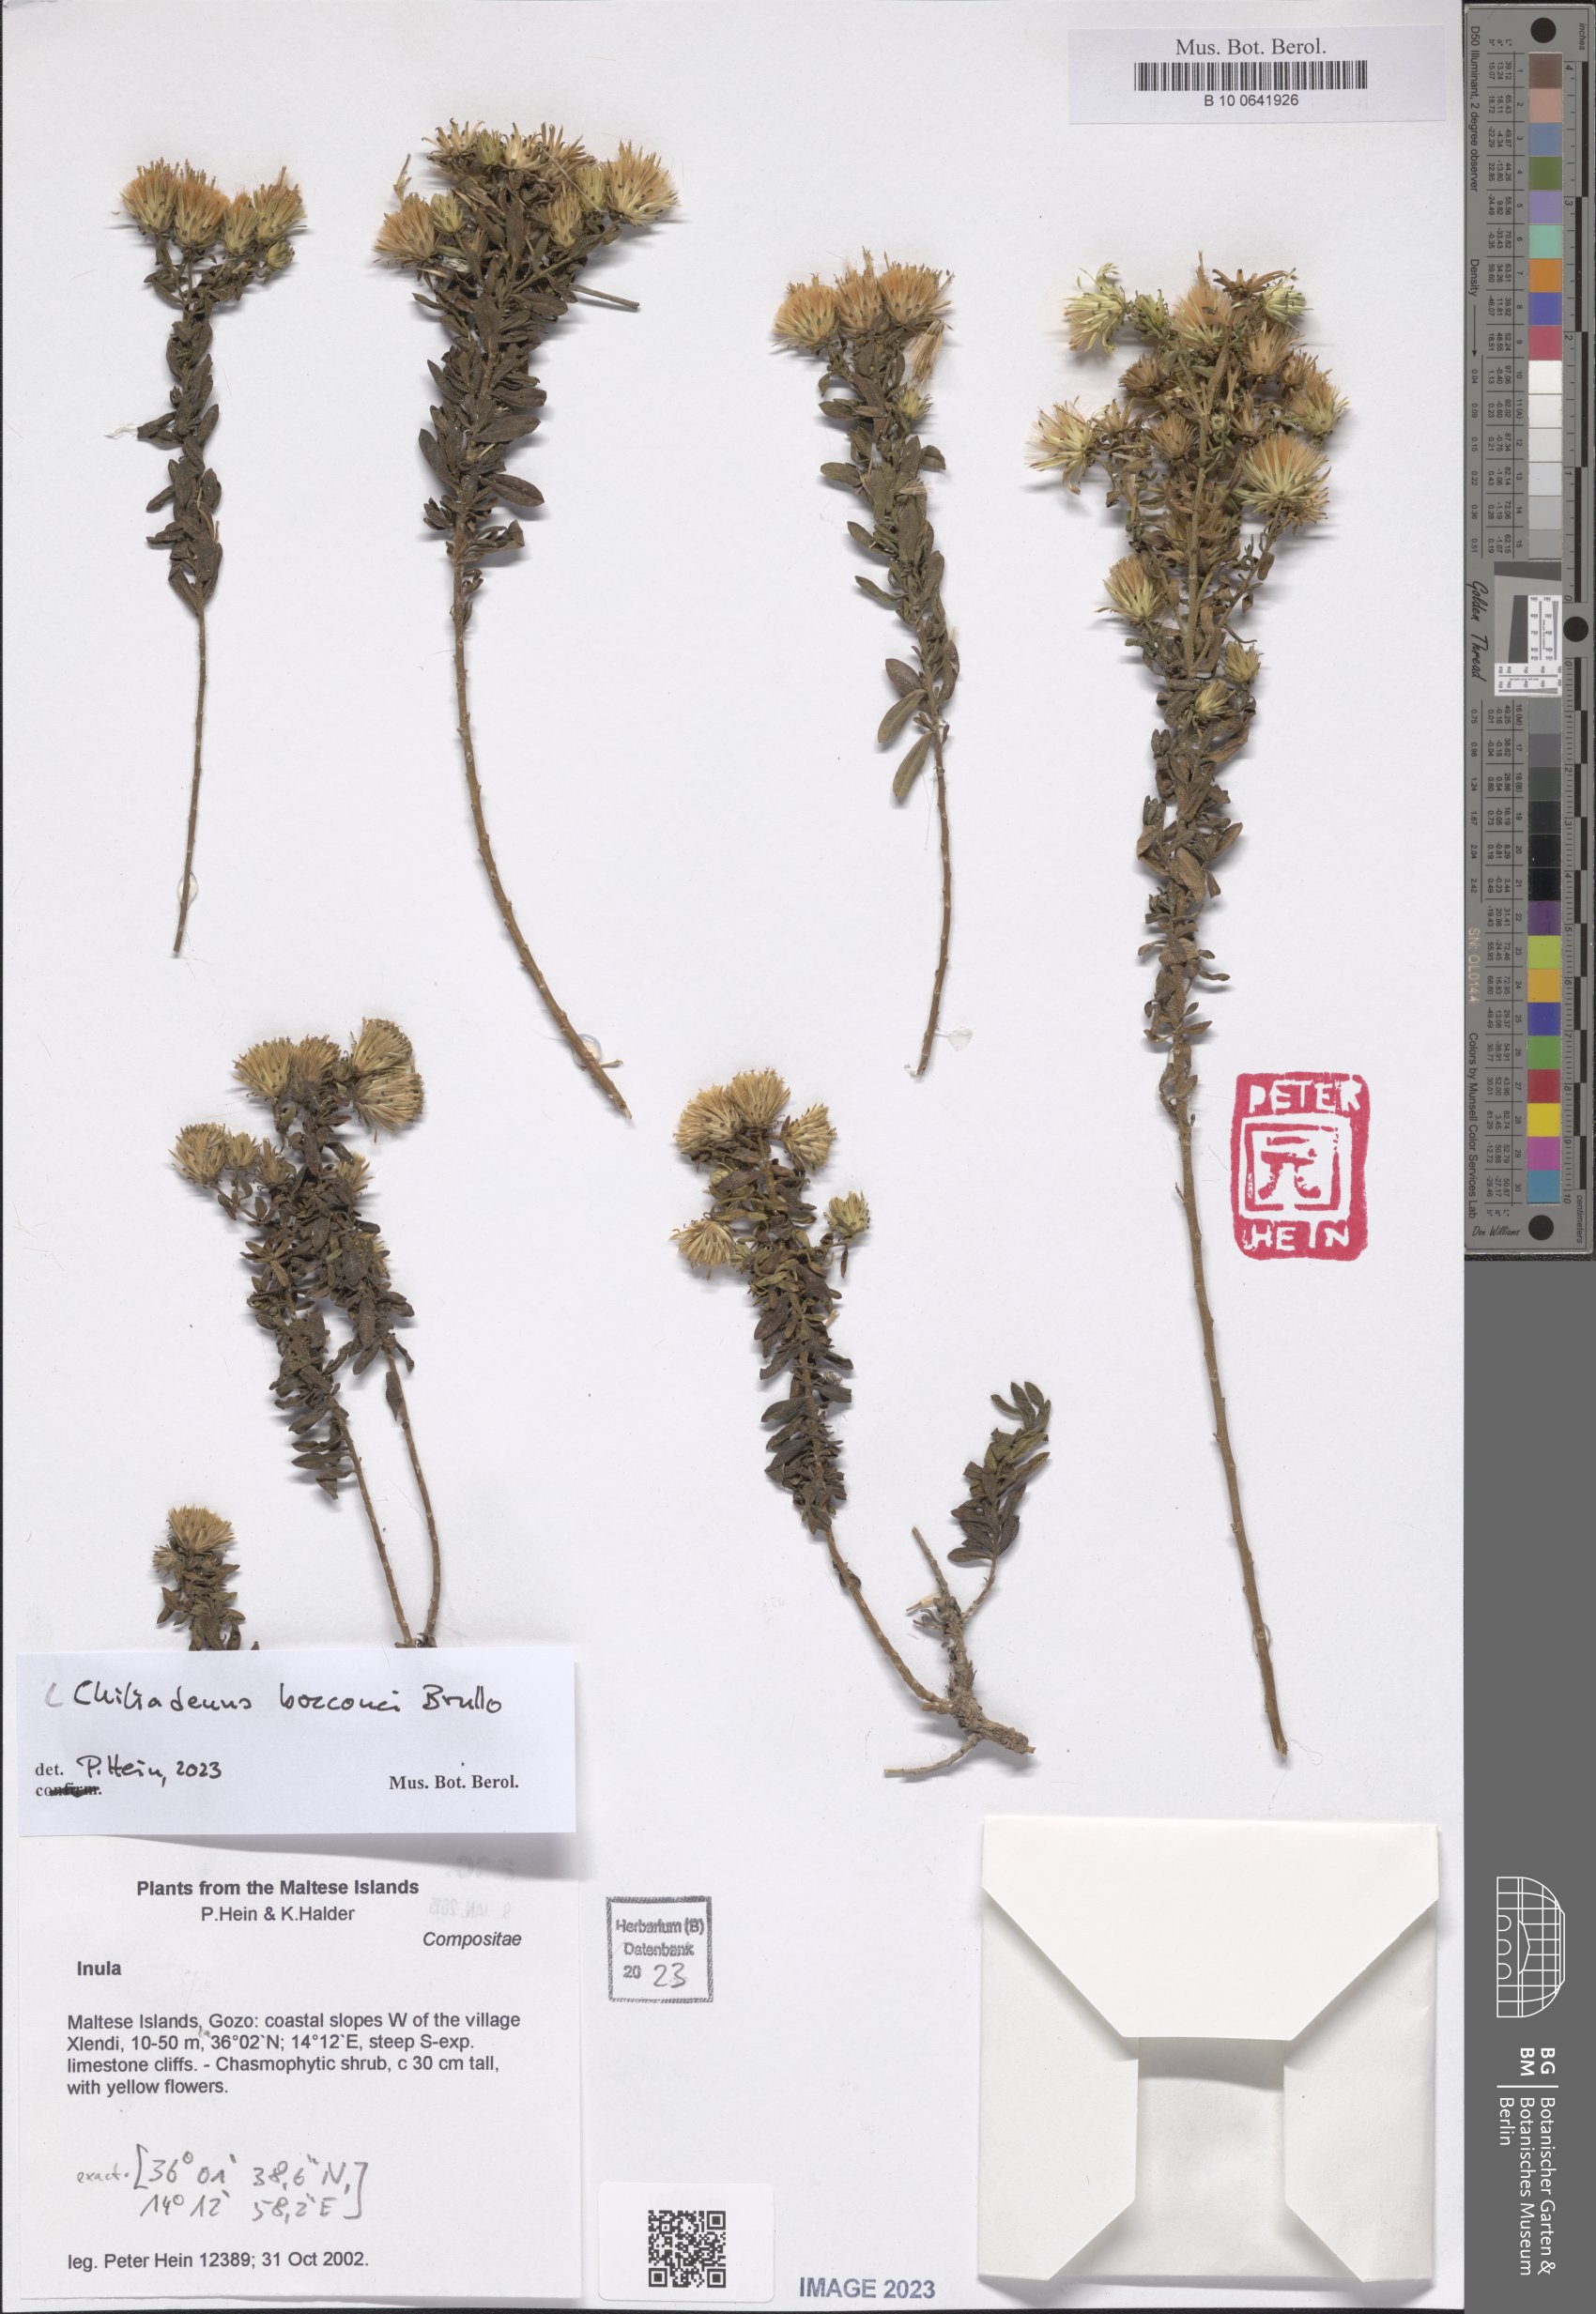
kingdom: Plantae
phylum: Tracheophyta
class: Magnoliopsida
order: Asterales
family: Asteraceae
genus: Chiliadenus
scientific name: Chiliadenus bocconei
